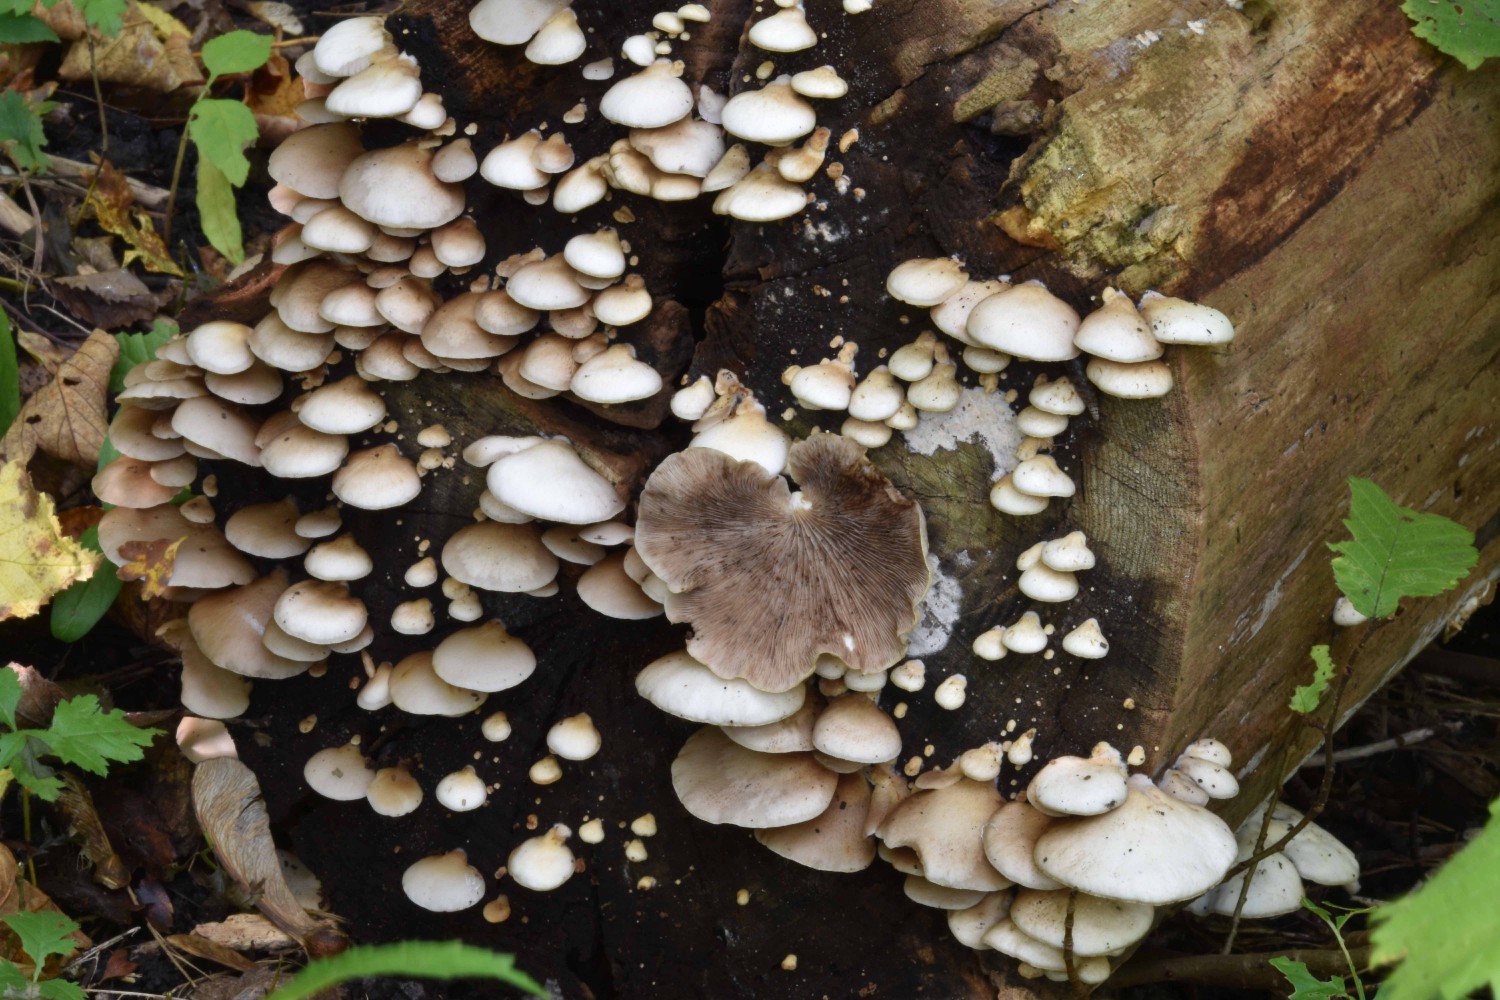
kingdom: Fungi
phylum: Basidiomycota
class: Agaricomycetes
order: Agaricales
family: Crepidotaceae
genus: Crepidotus
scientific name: Crepidotus mollis
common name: blød muslingesvamp
